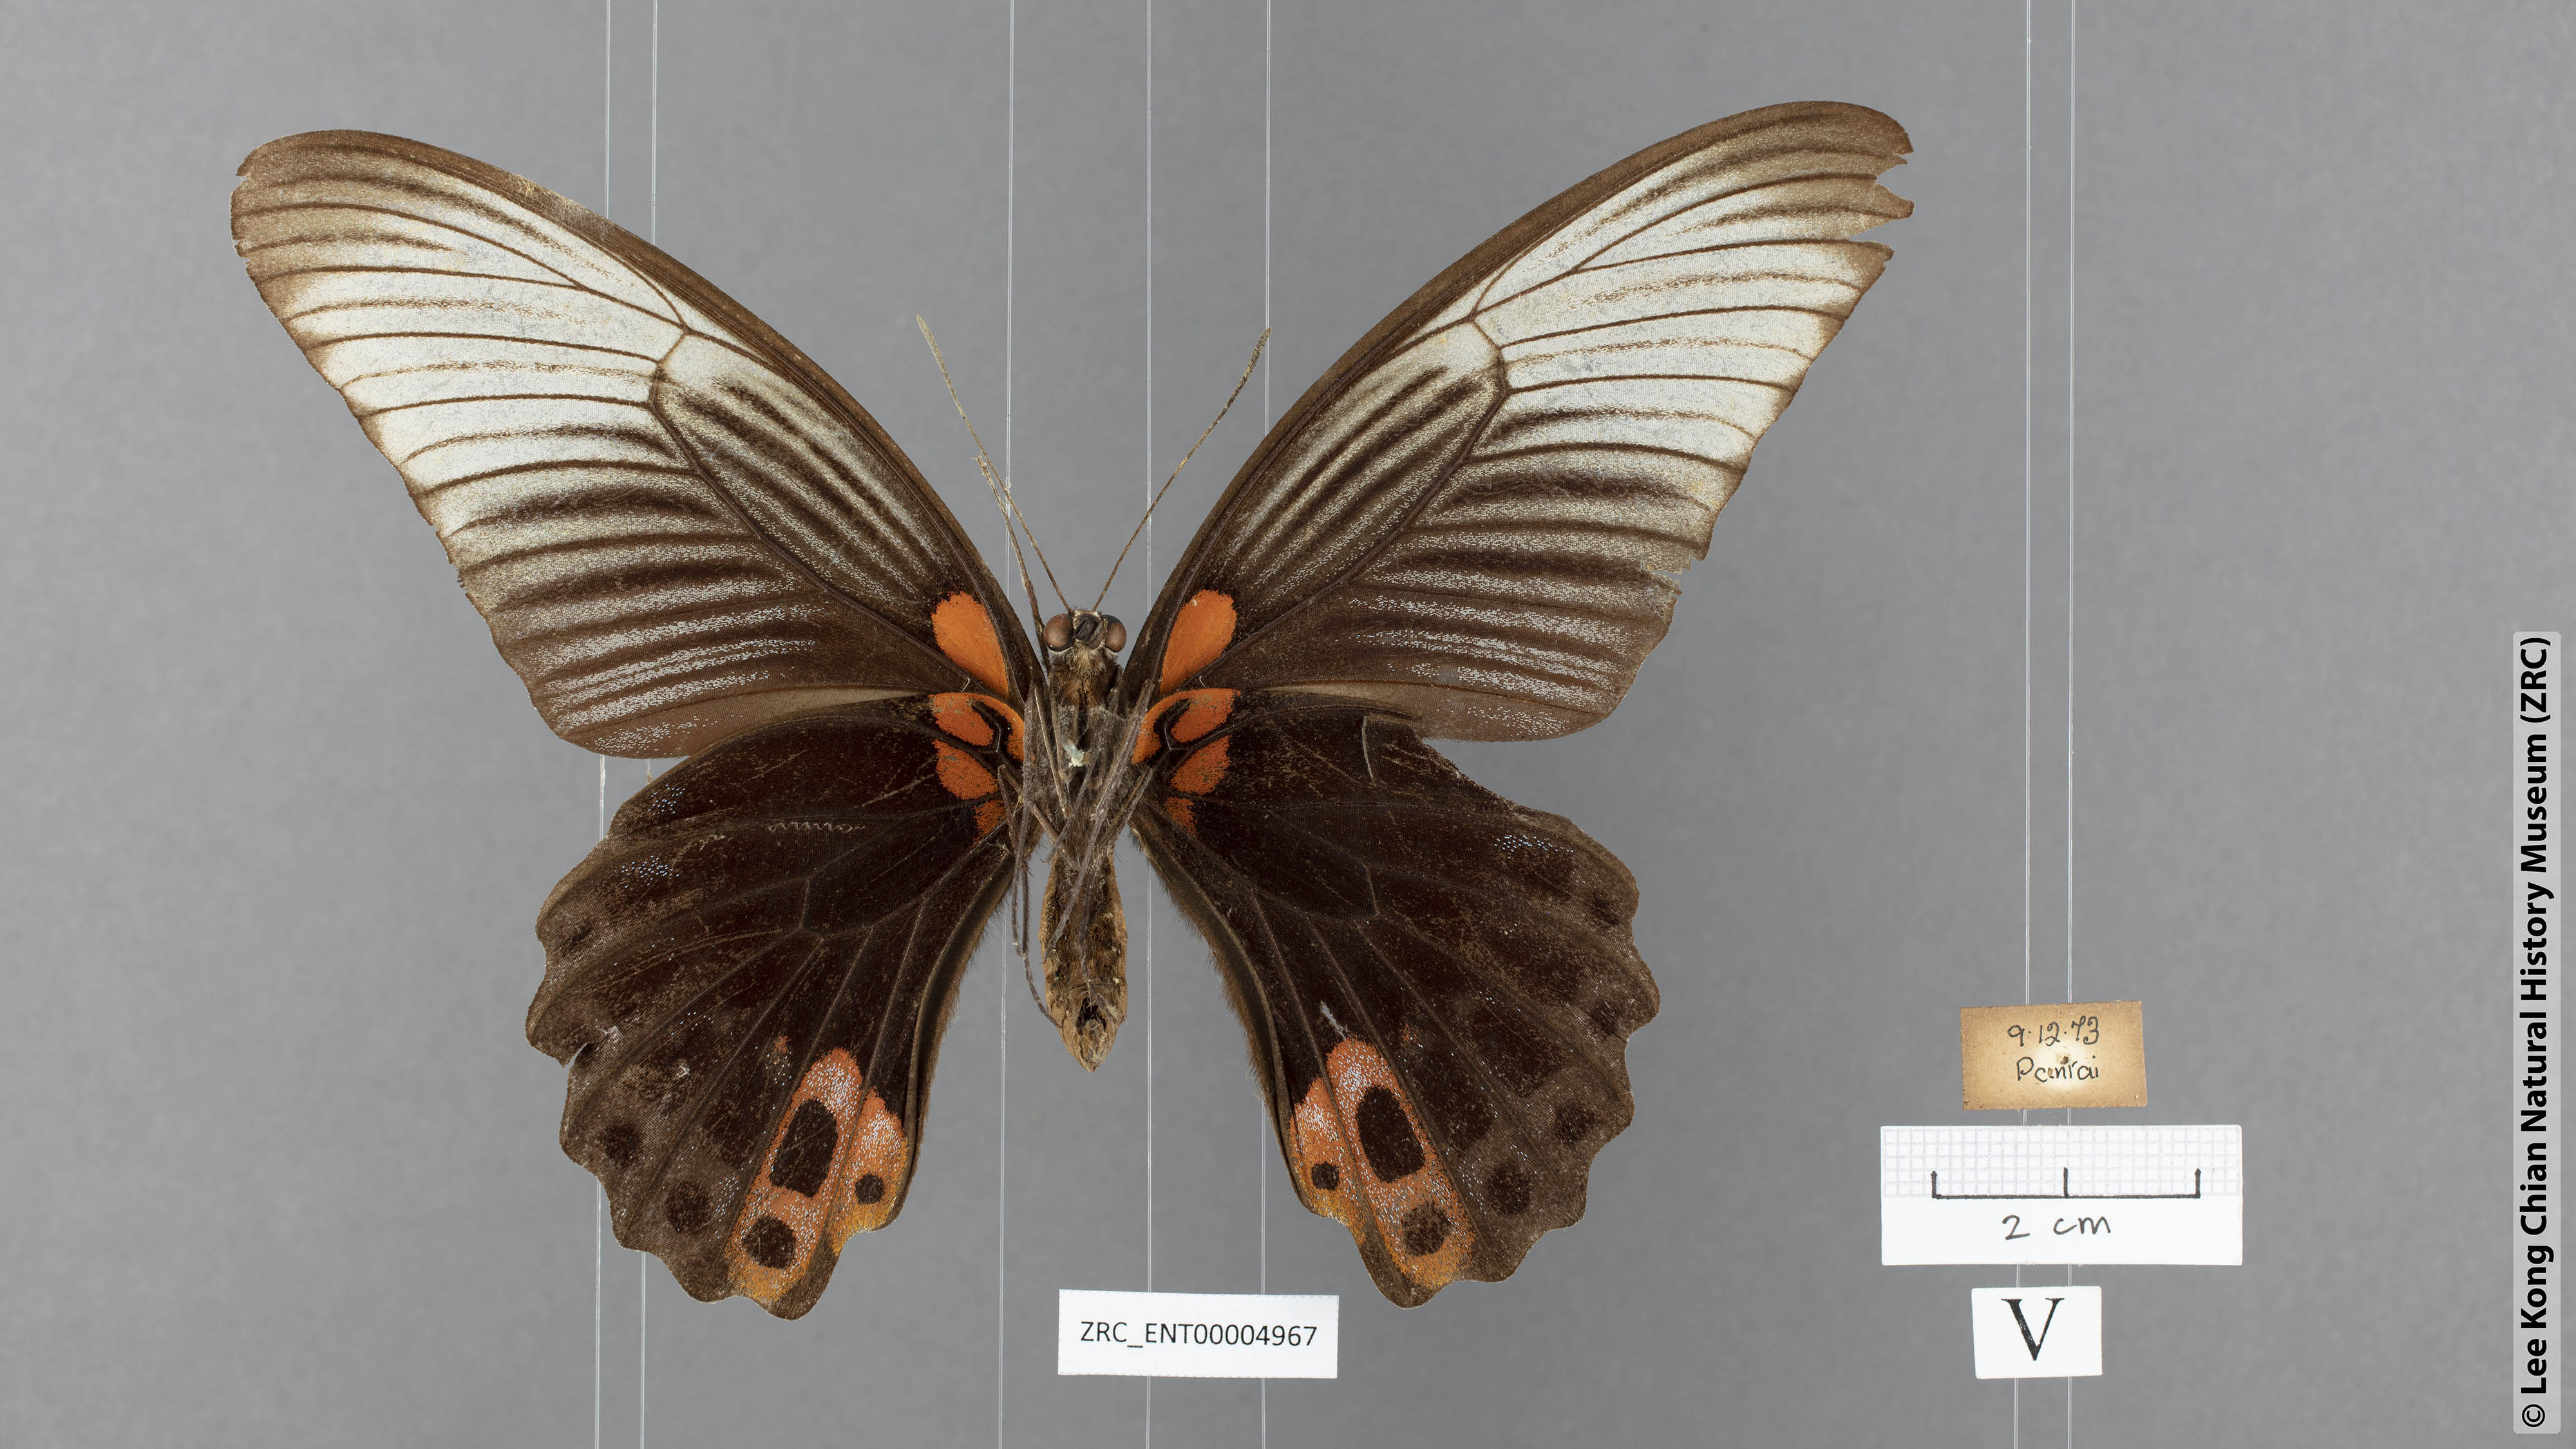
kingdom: Animalia
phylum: Arthropoda
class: Insecta
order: Lepidoptera
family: Papilionidae
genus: Papilio
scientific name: Papilio memnon
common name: Great mormon
